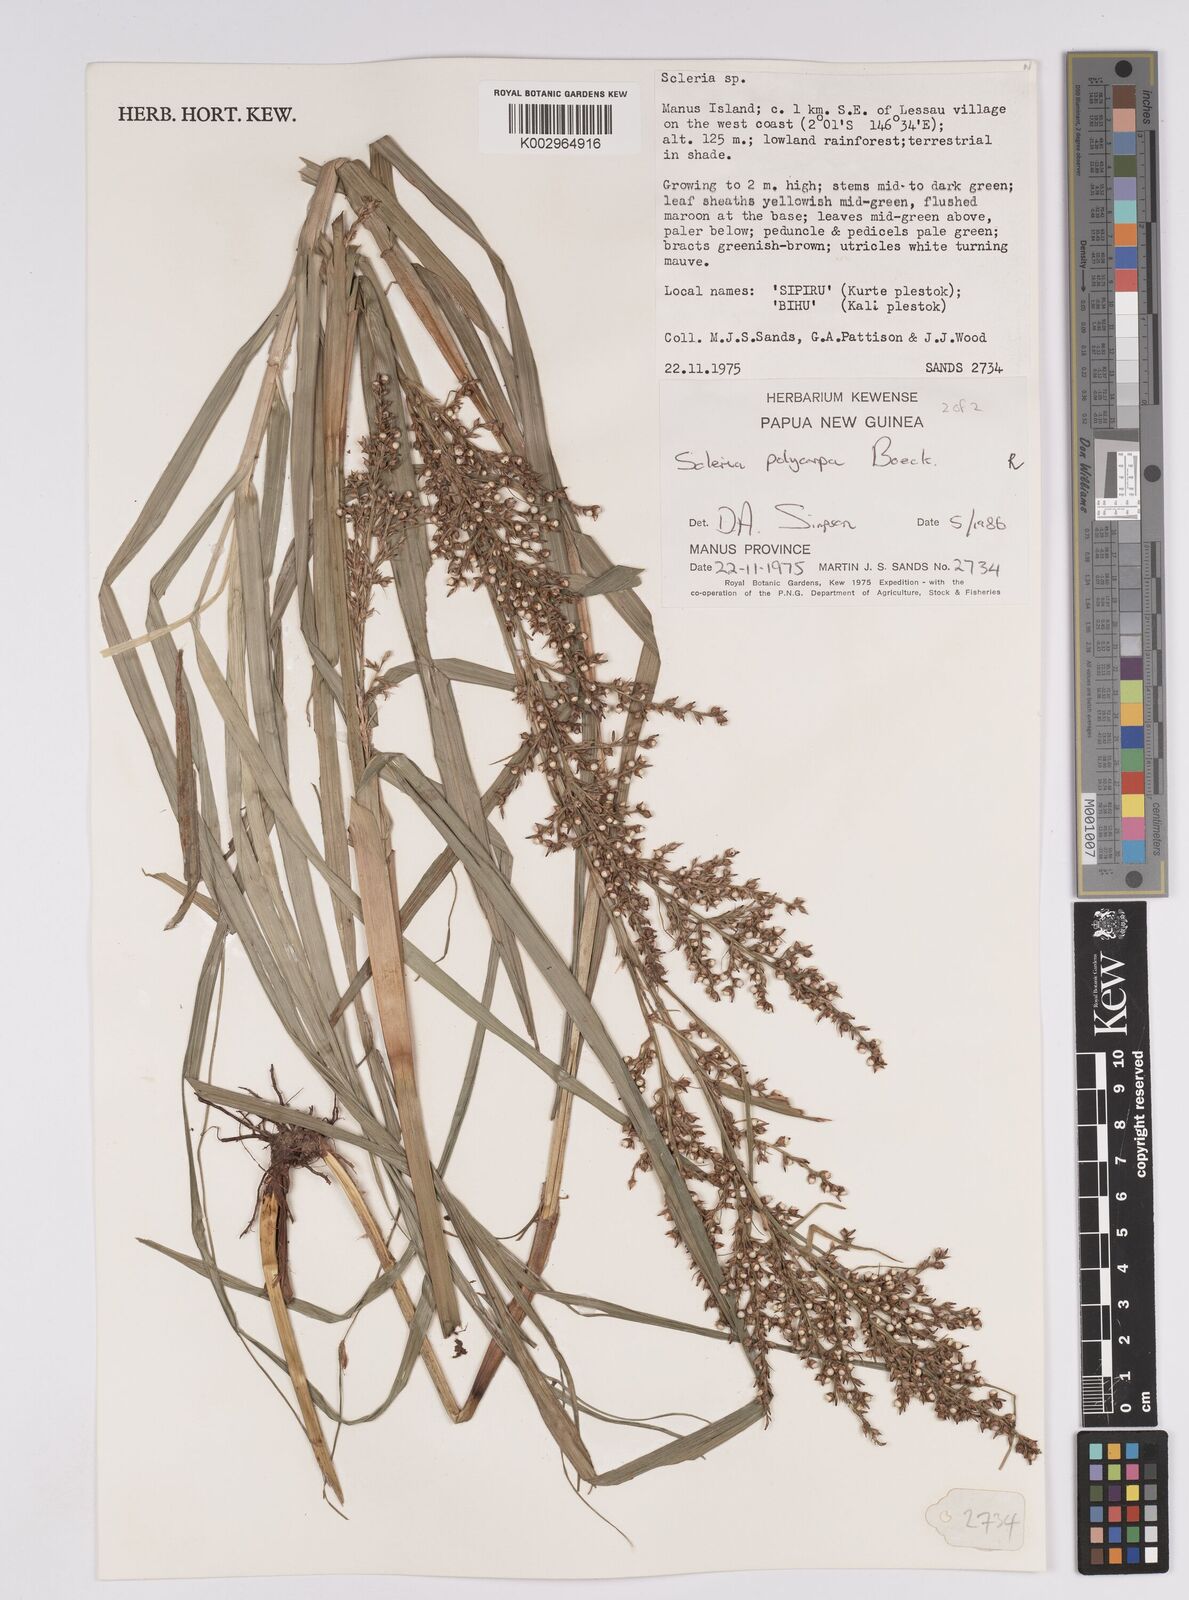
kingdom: Plantae
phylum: Tracheophyta
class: Liliopsida
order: Poales
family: Cyperaceae
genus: Scleria
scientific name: Scleria polycarpa
